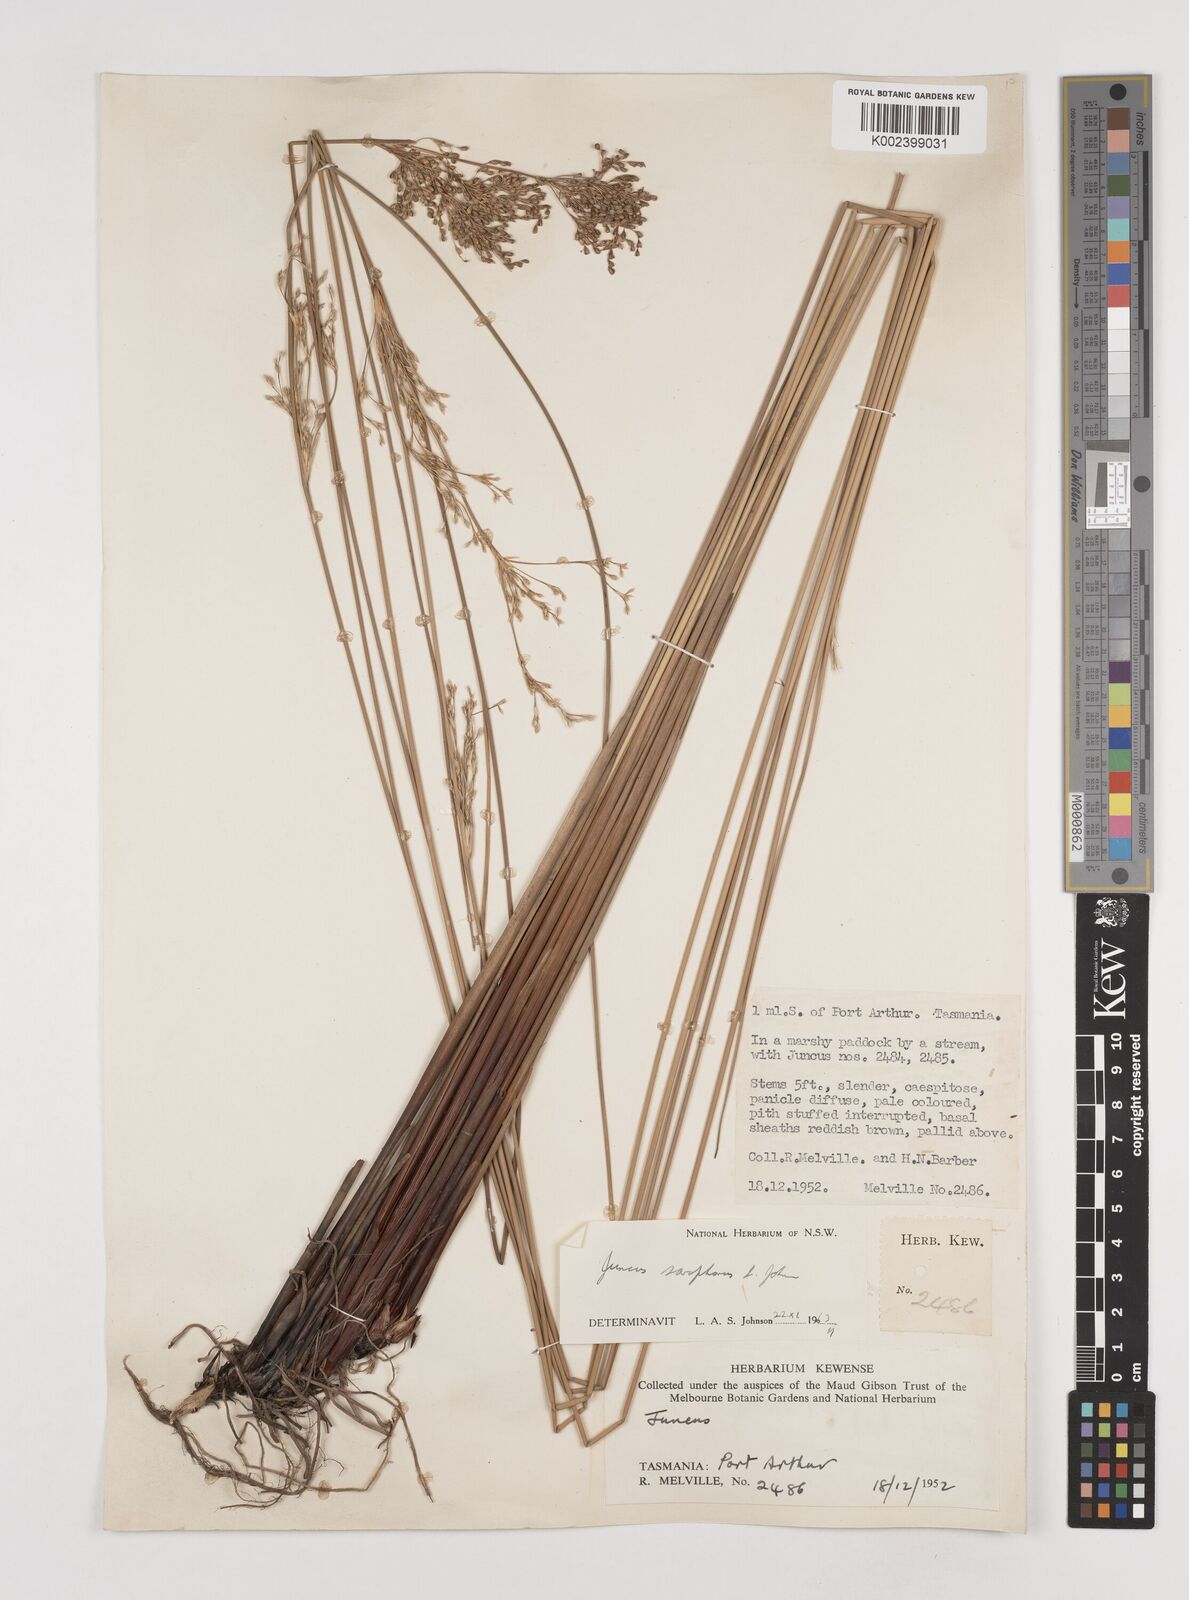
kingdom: Plantae
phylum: Tracheophyta
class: Liliopsida
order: Poales
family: Juncaceae
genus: Juncus
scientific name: Juncus sarophorus
